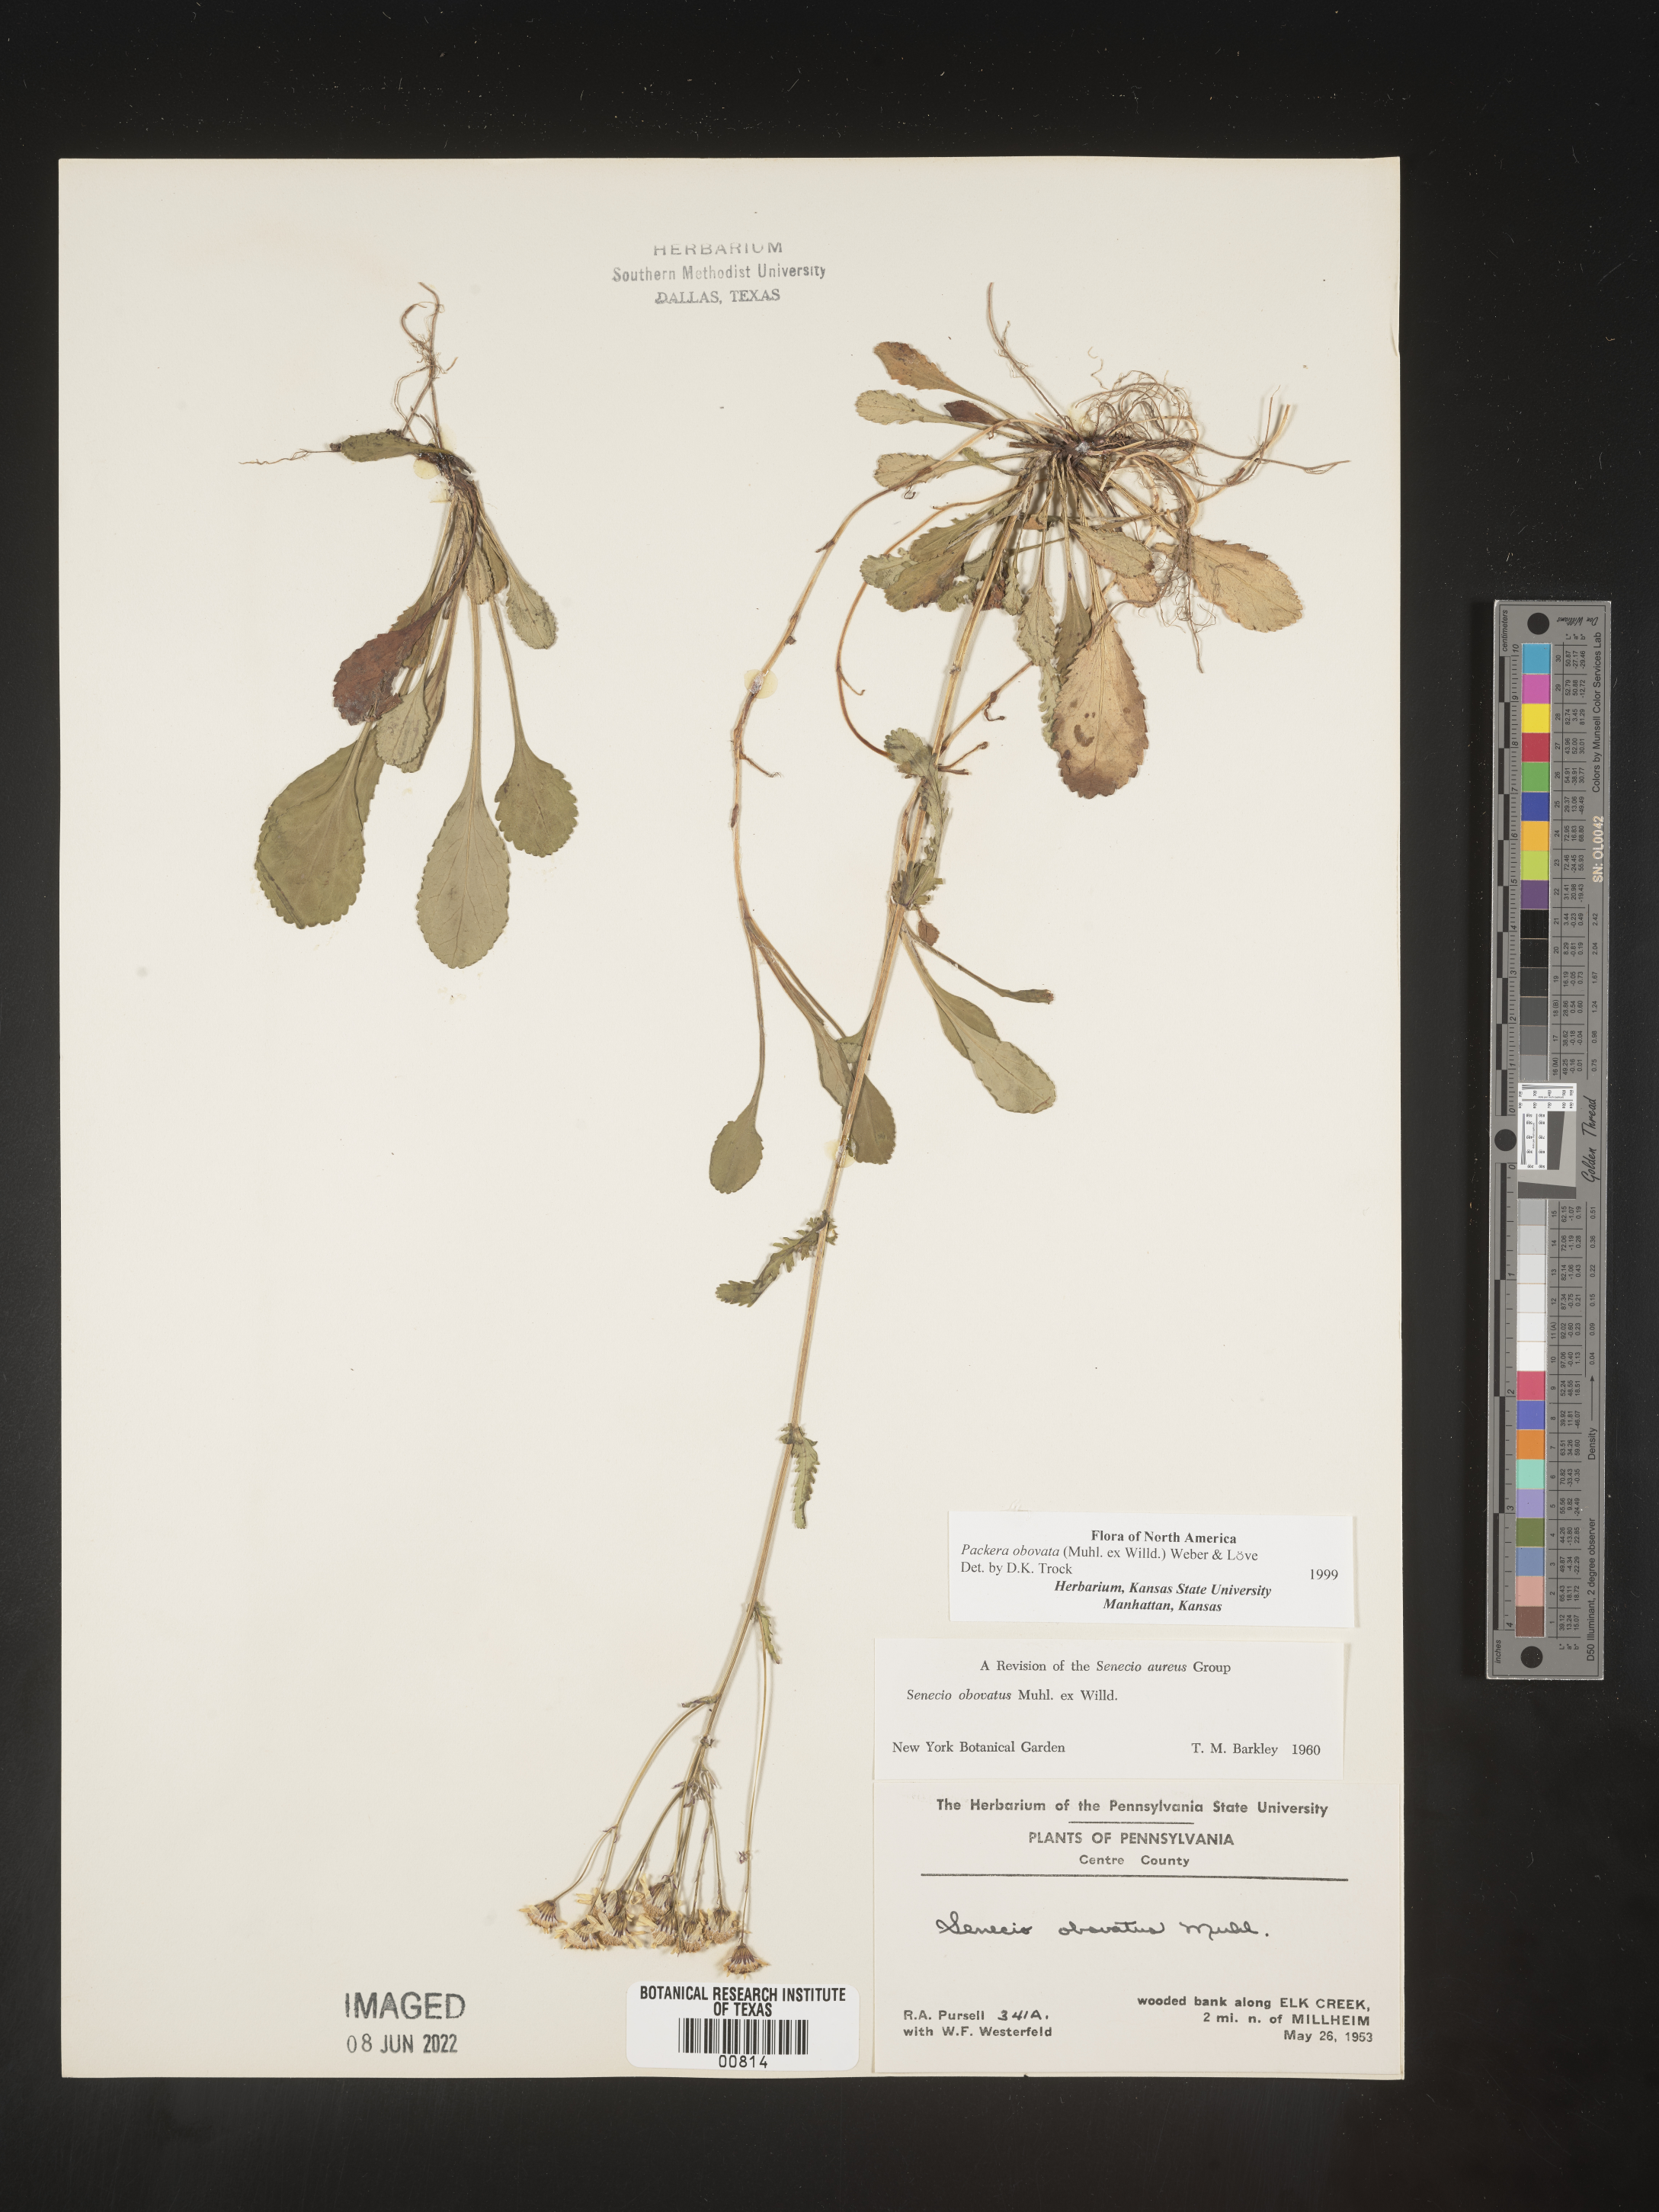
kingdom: Plantae
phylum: Tracheophyta
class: Magnoliopsida
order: Asterales
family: Asteraceae
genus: Packera
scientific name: Packera obovata
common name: Round-leaf ragwort
